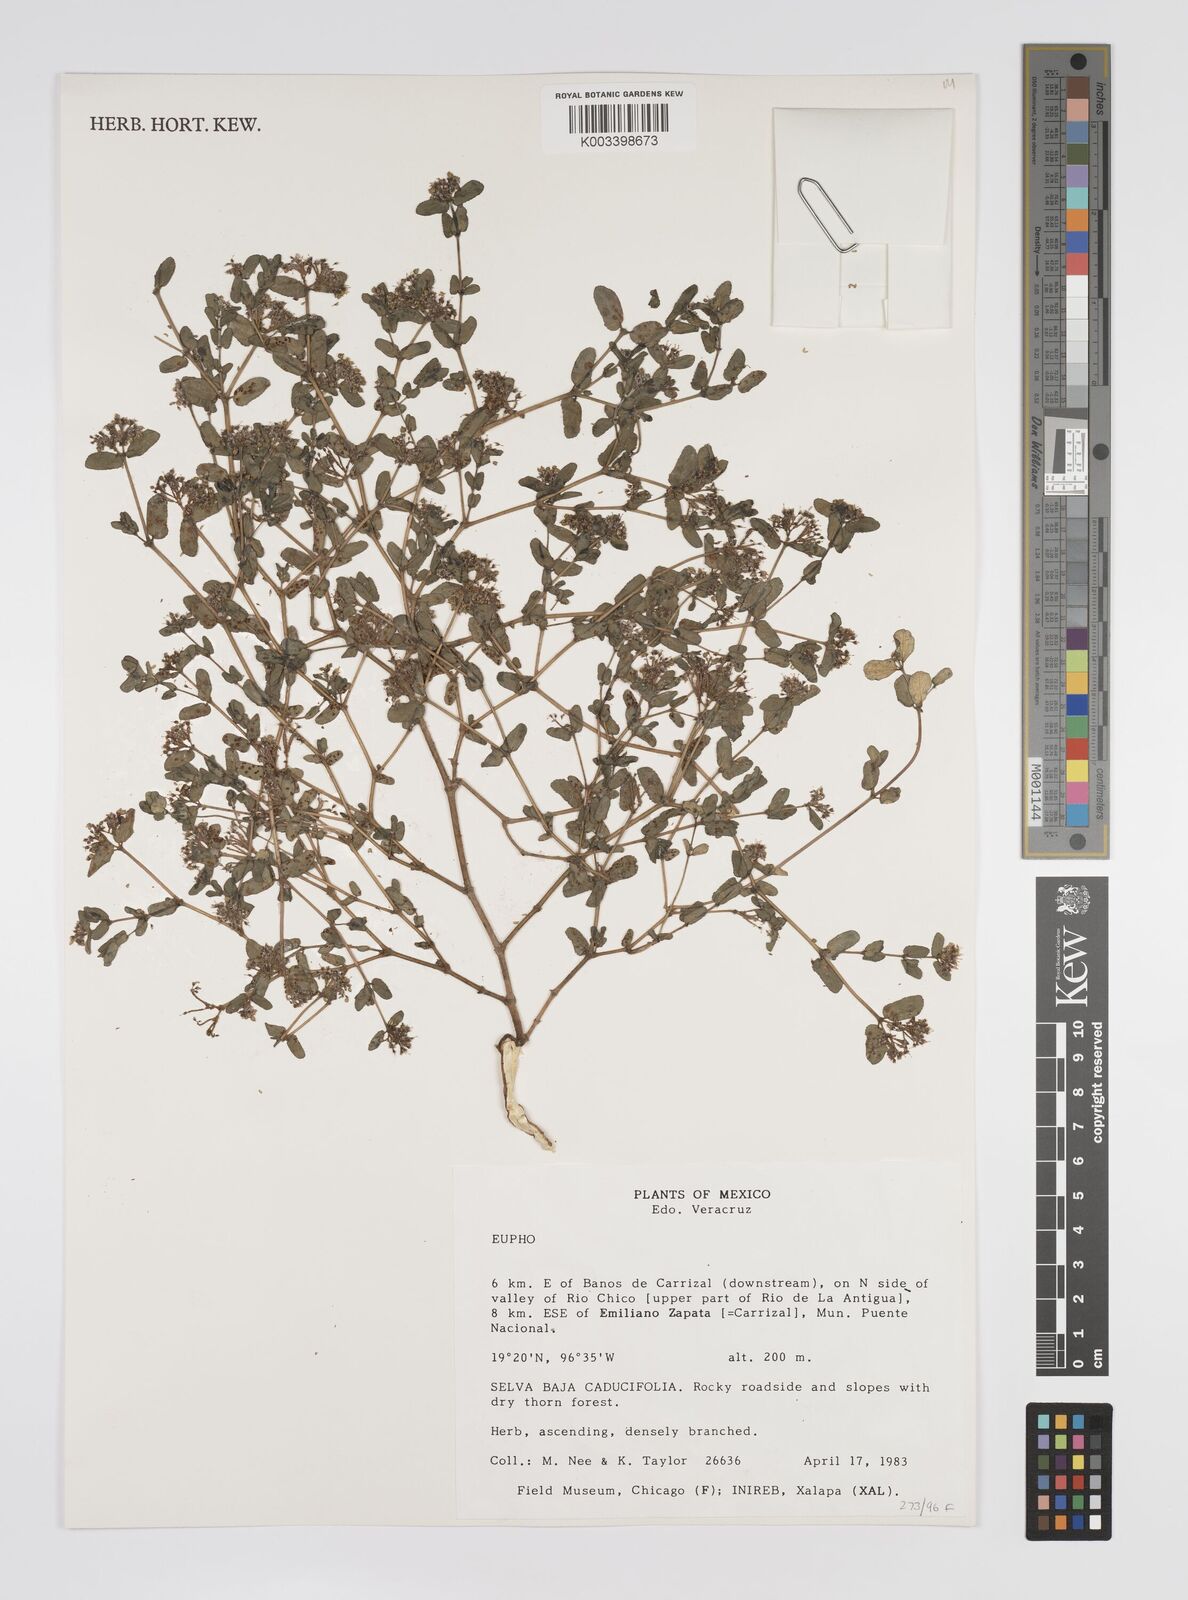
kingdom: Plantae
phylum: Tracheophyta
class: Magnoliopsida
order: Malpighiales
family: Euphorbiaceae
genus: Euphorbia
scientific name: Euphorbia
